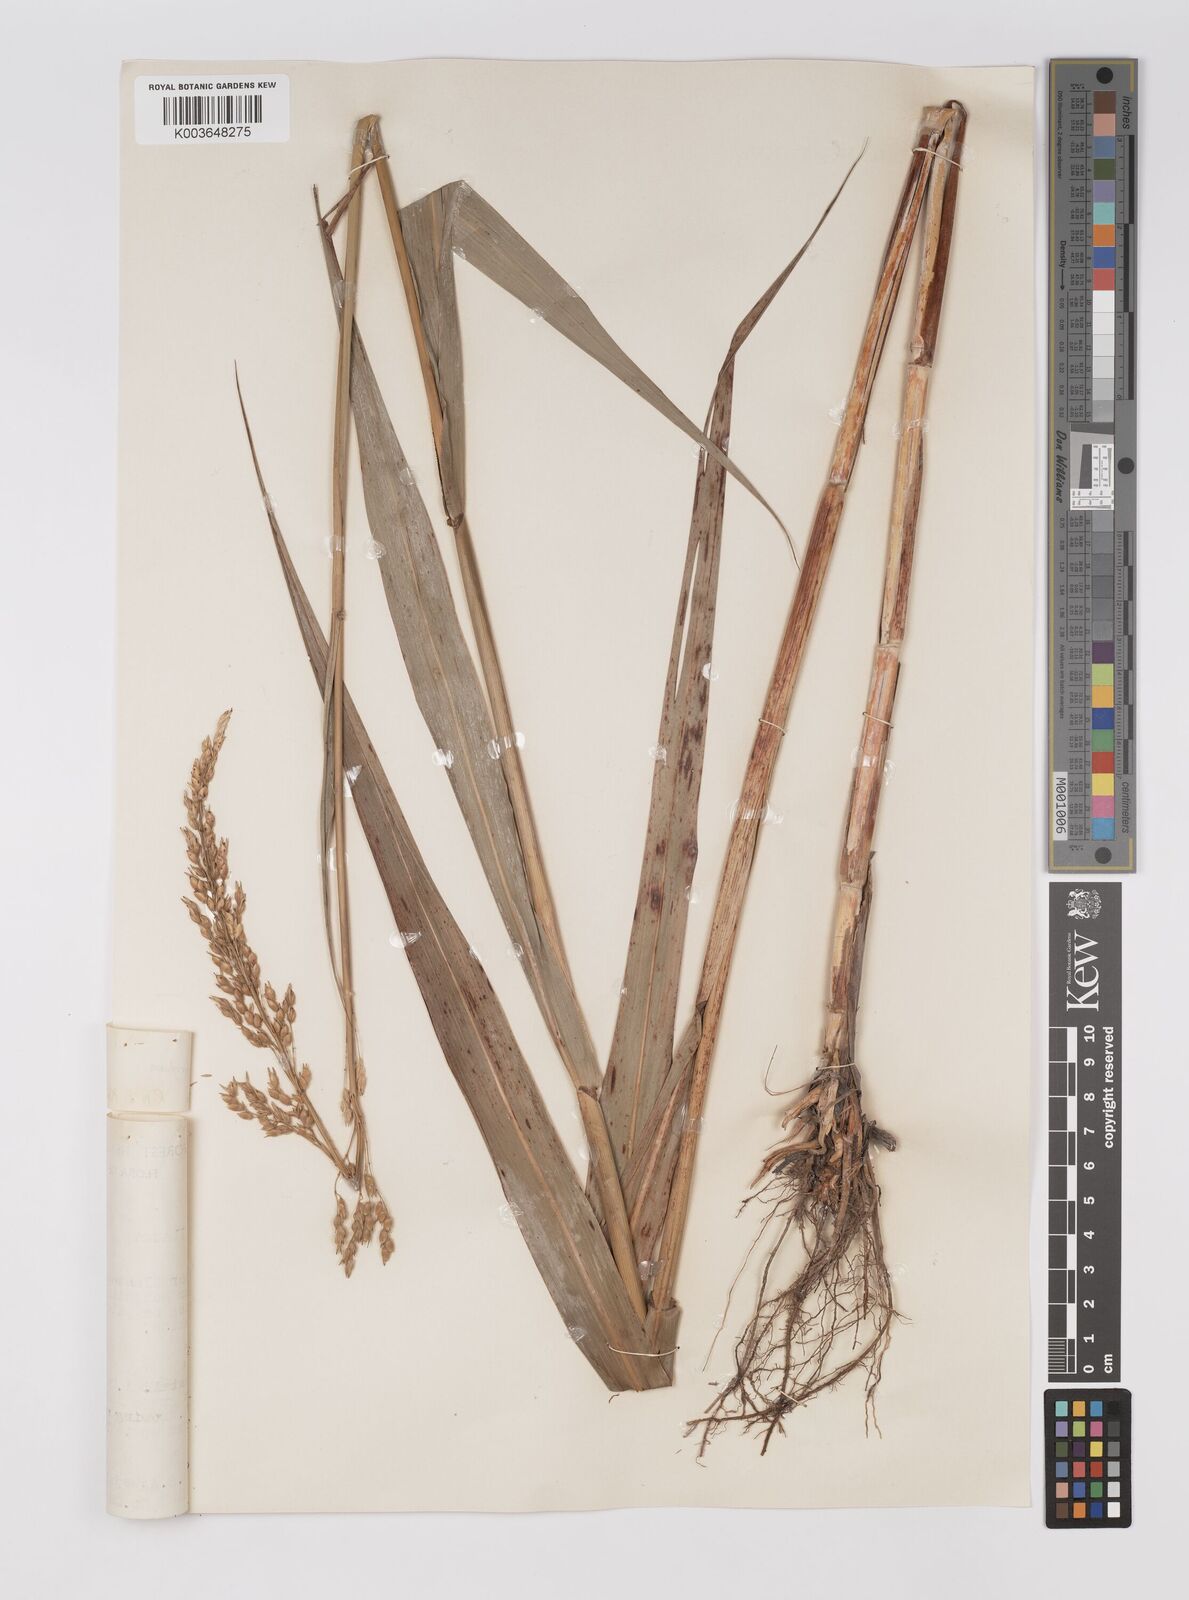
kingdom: Plantae
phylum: Tracheophyta
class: Liliopsida
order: Poales
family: Poaceae
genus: Sorghum
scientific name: Sorghum drummondii
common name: Sudangrass
